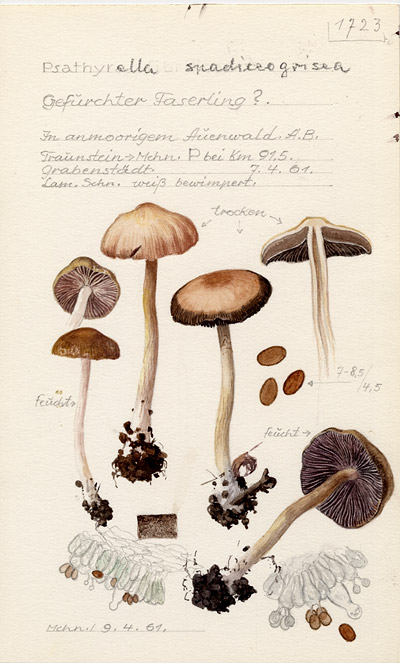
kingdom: Fungi
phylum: Basidiomycota
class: Agaricomycetes
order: Agaricales
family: Psathyrellaceae
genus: Psathyrella
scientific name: Psathyrella spadiceogrisea
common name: Spring brittlestem
